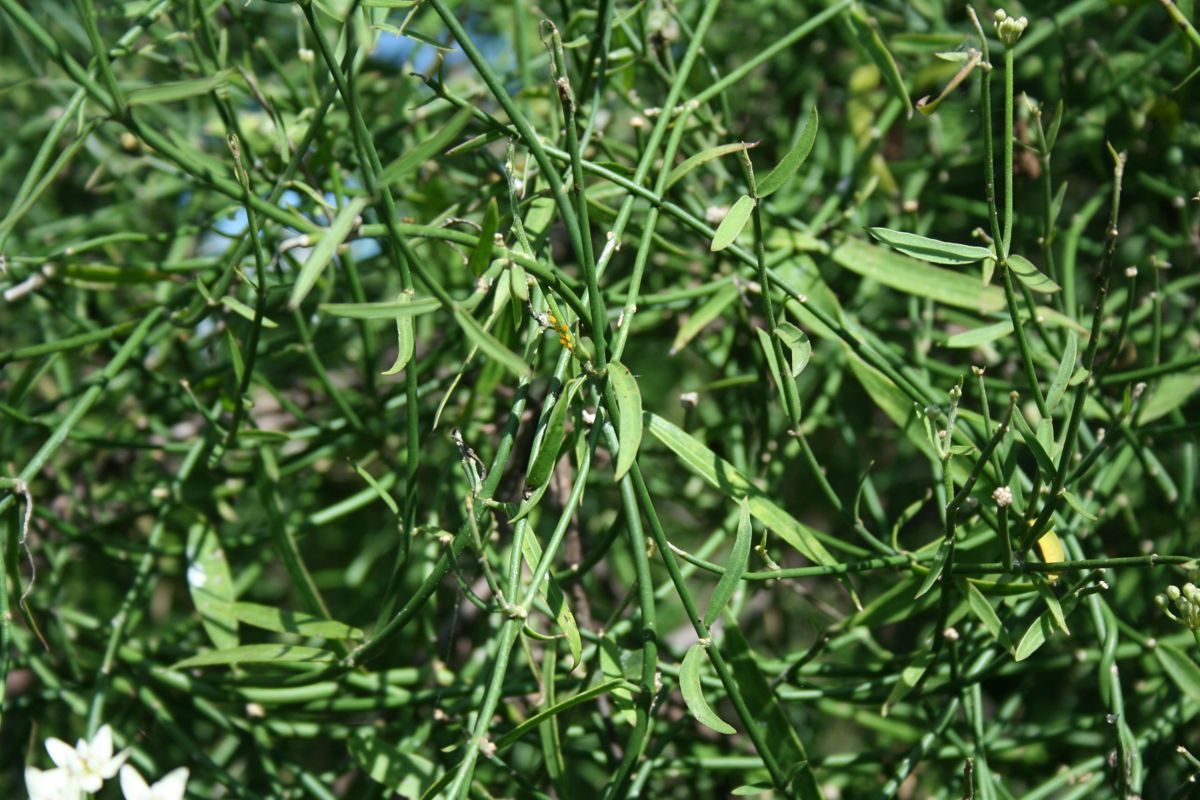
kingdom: Plantae
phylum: Tracheophyta
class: Magnoliopsida
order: Gentianales
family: Apocynaceae
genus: Funastrum
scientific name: Funastrum clausum
